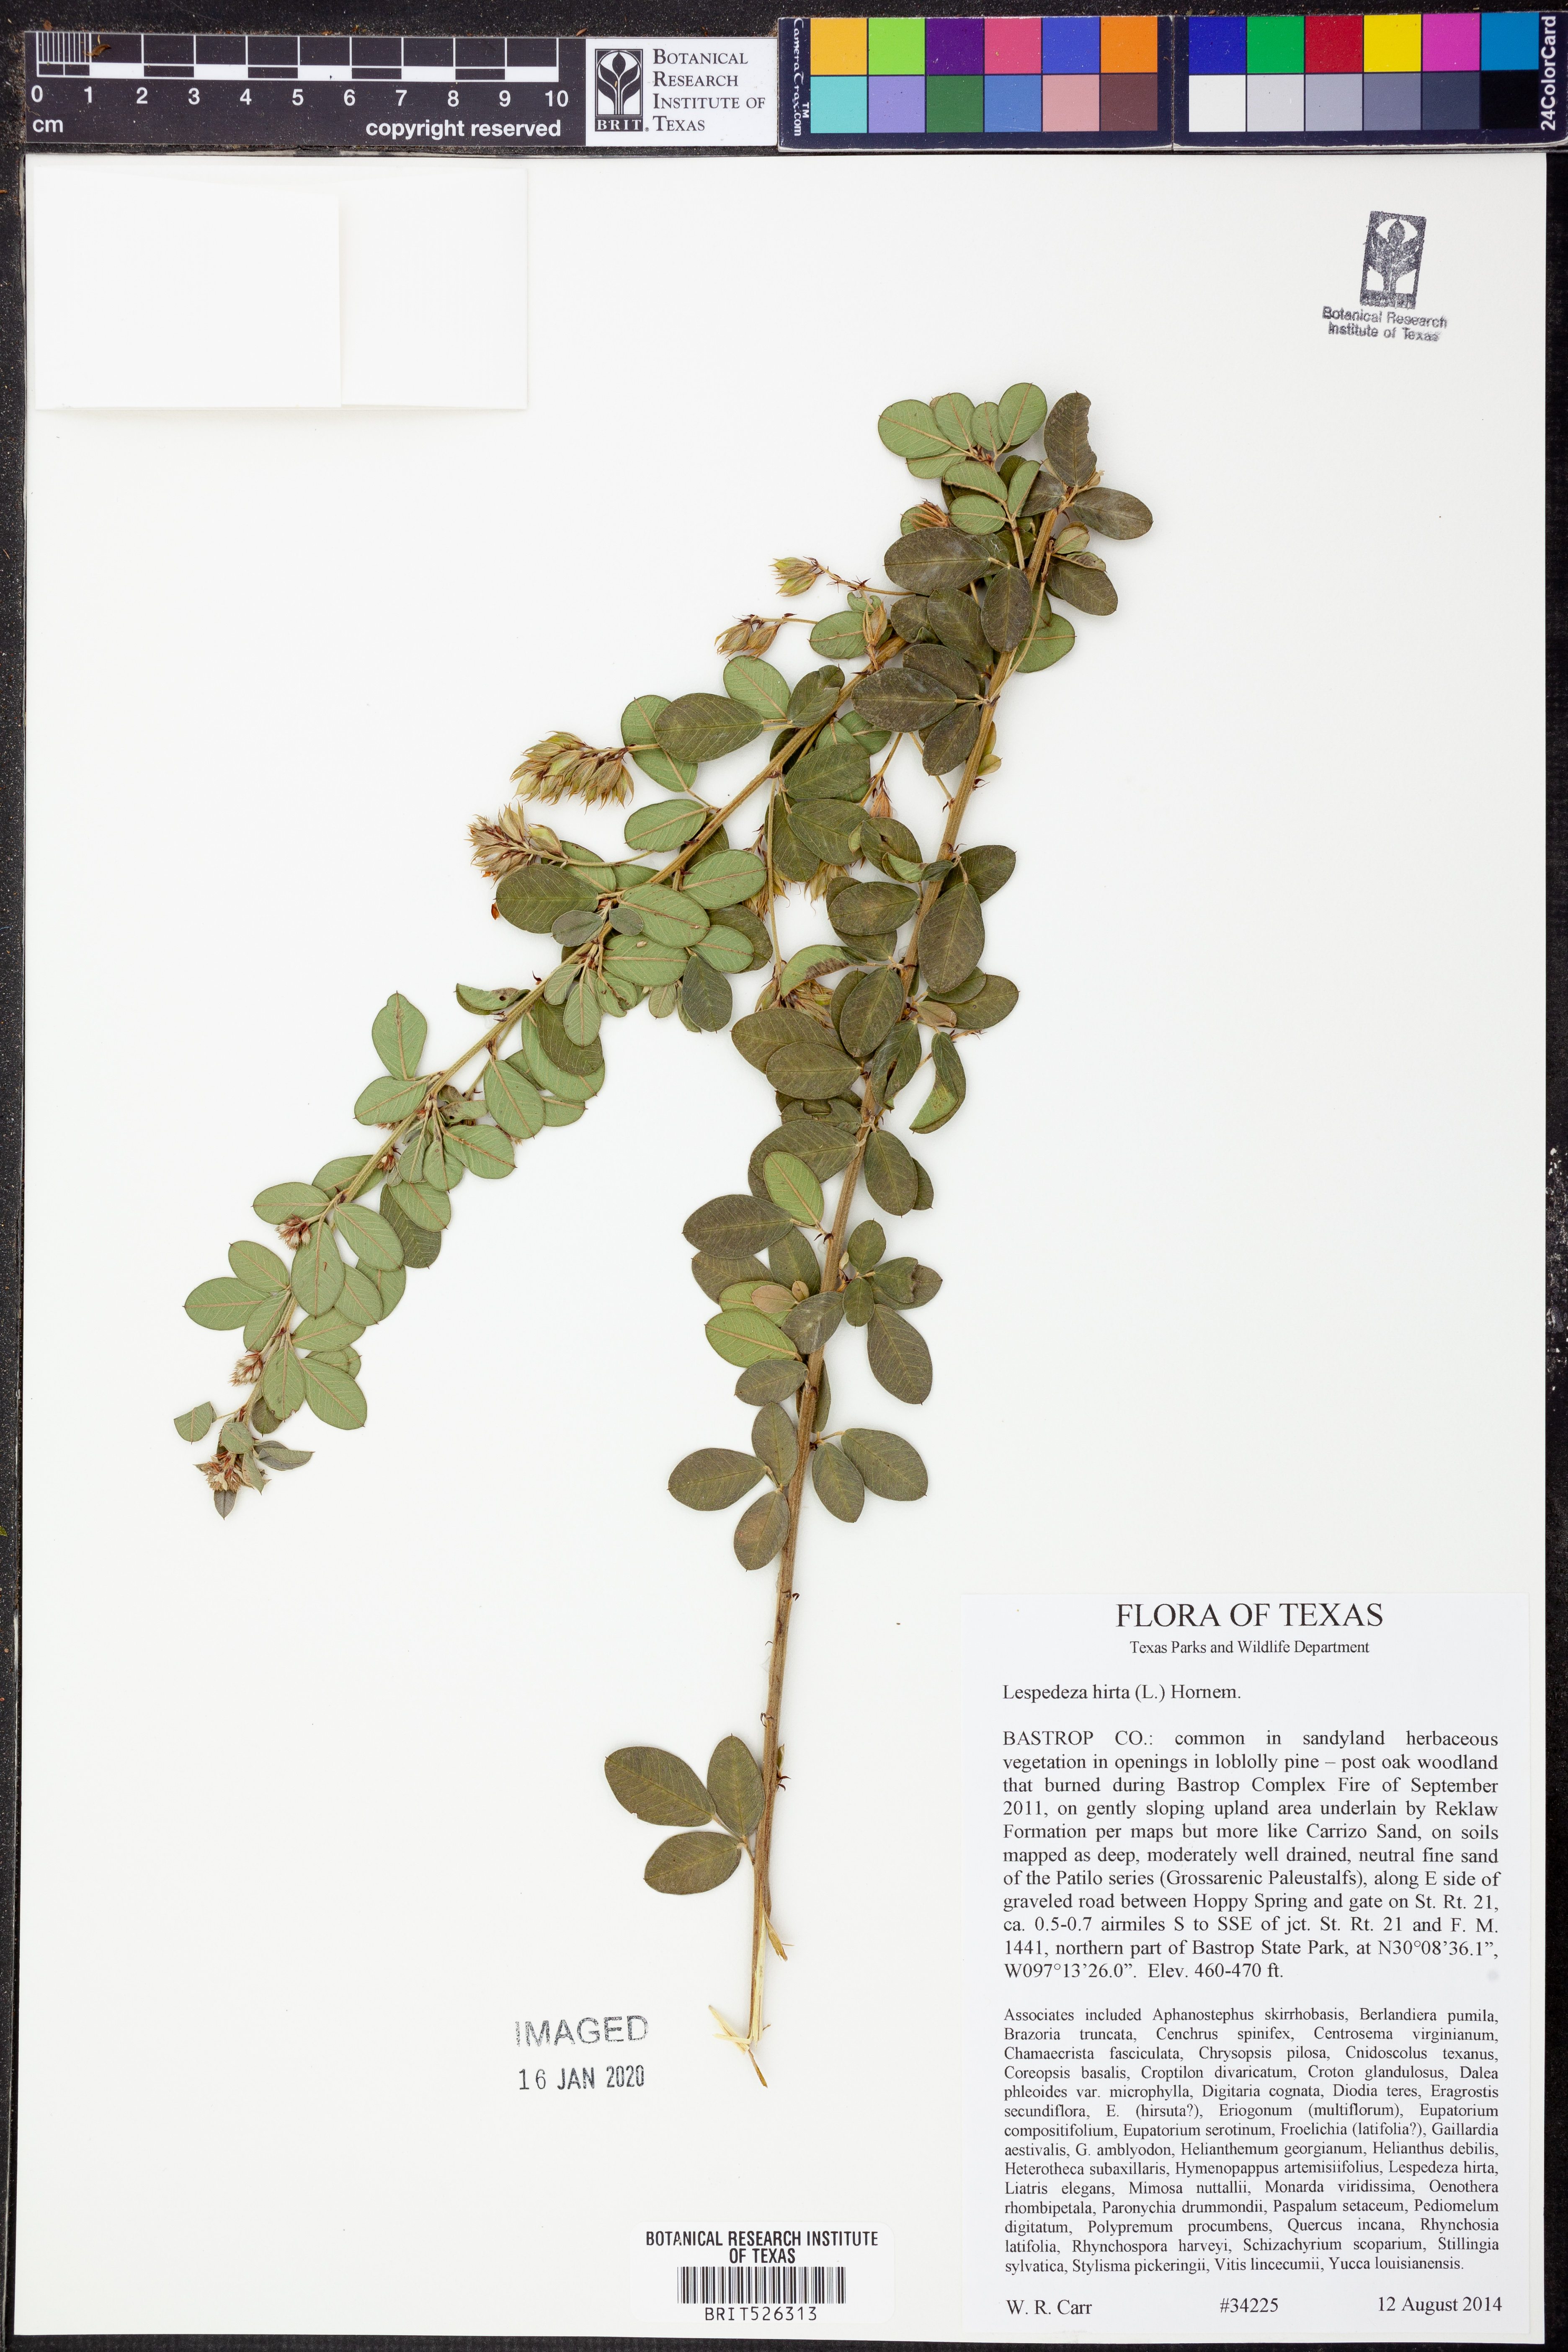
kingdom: Plantae
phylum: Tracheophyta
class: Magnoliopsida
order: Fabales
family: Fabaceae
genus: Lespedeza
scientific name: Lespedeza hirta
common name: Hairy lespedeza
